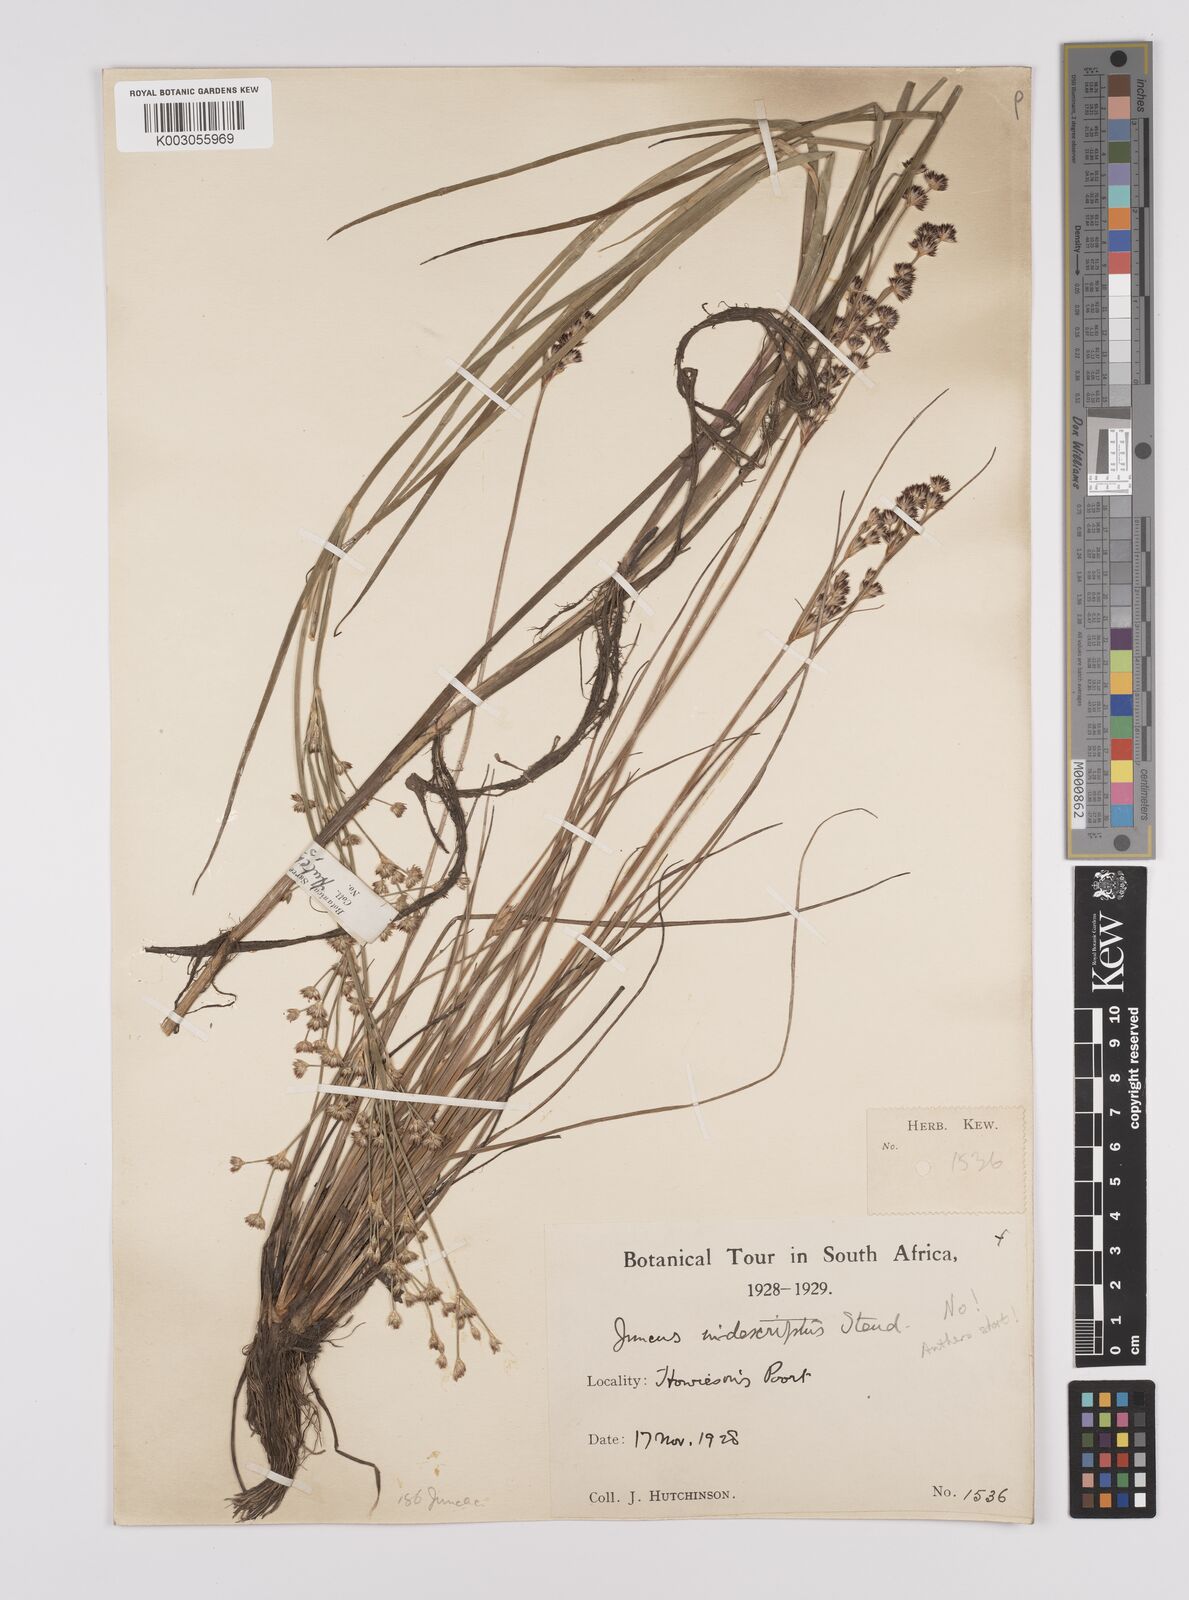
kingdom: Plantae
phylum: Tracheophyta
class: Liliopsida
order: Poales
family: Juncaceae
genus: Juncus
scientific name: Juncus capensis
